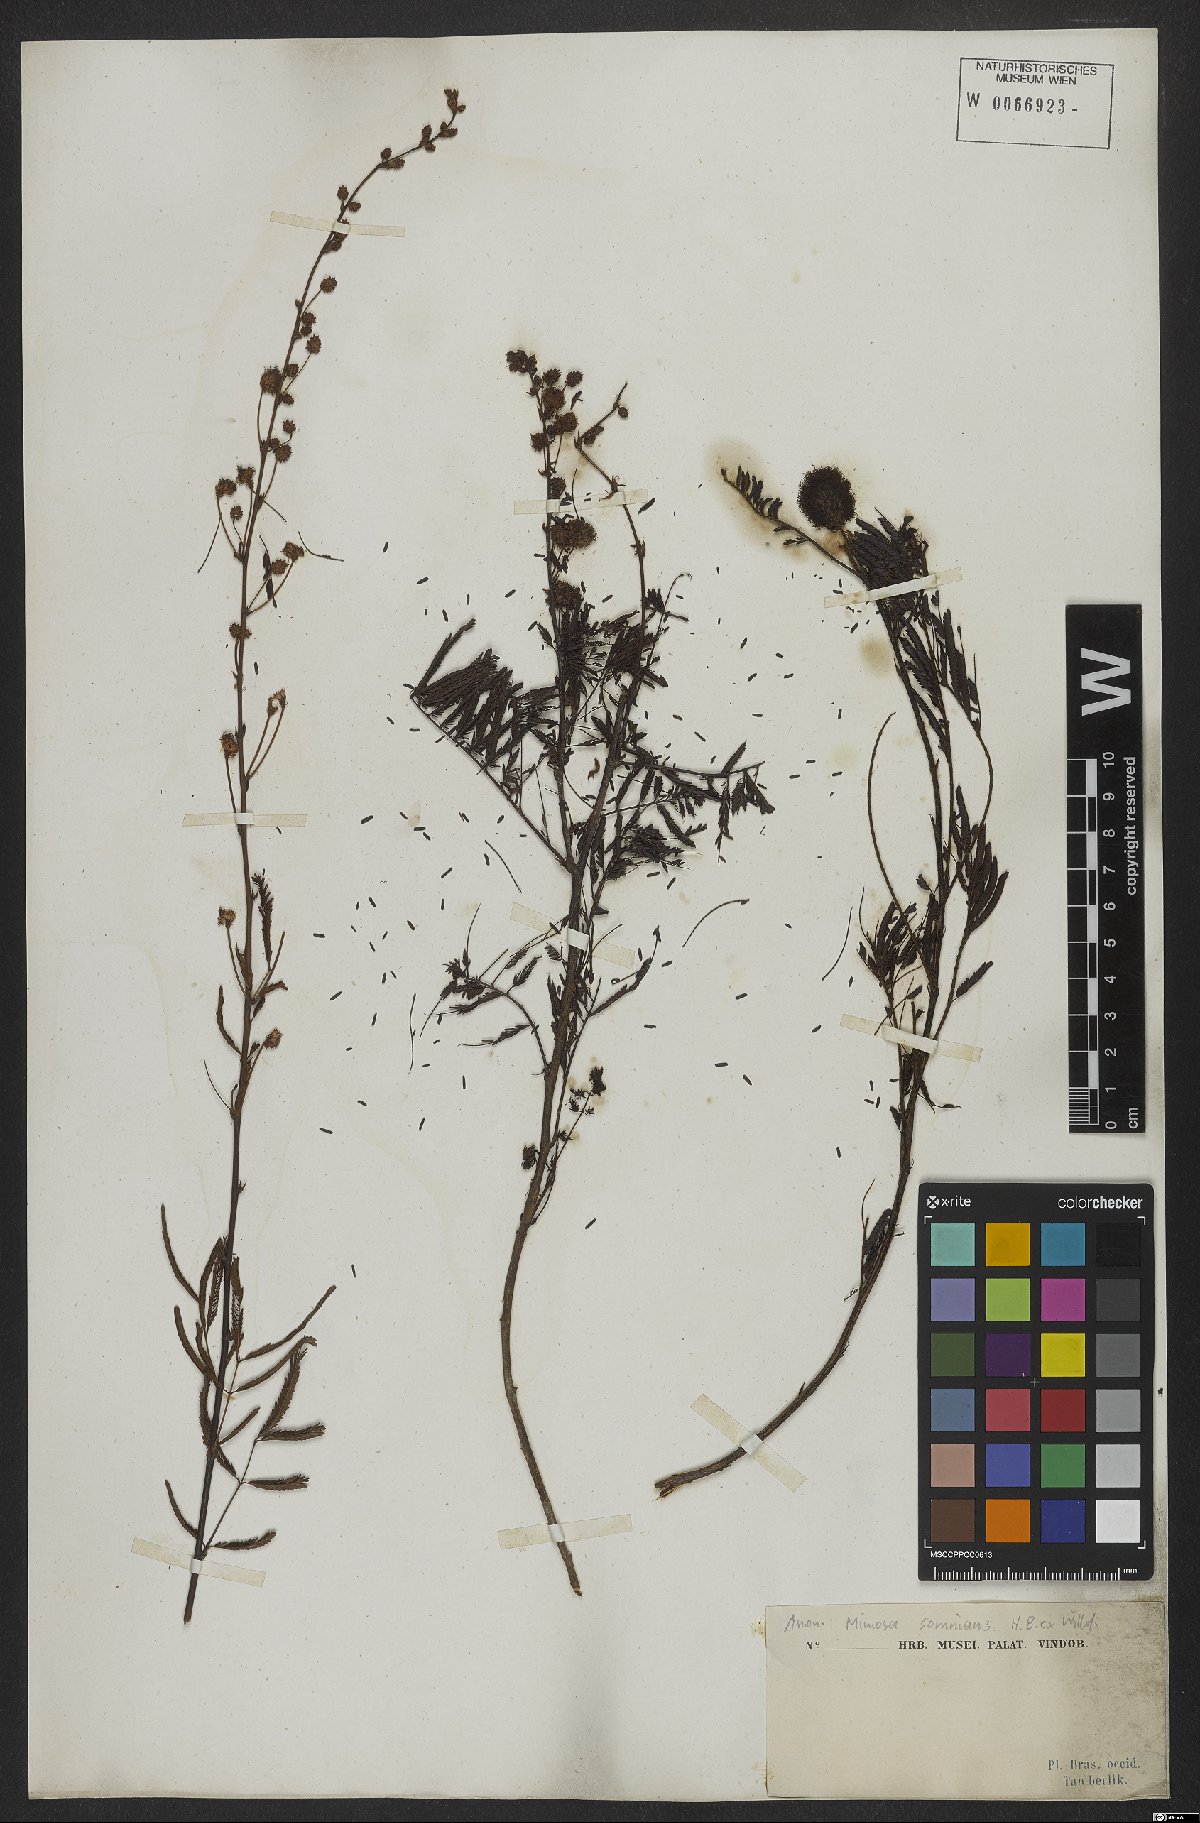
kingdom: Plantae
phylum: Tracheophyta
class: Magnoliopsida
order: Fabales
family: Fabaceae
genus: Mimosa
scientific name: Mimosa somnians
